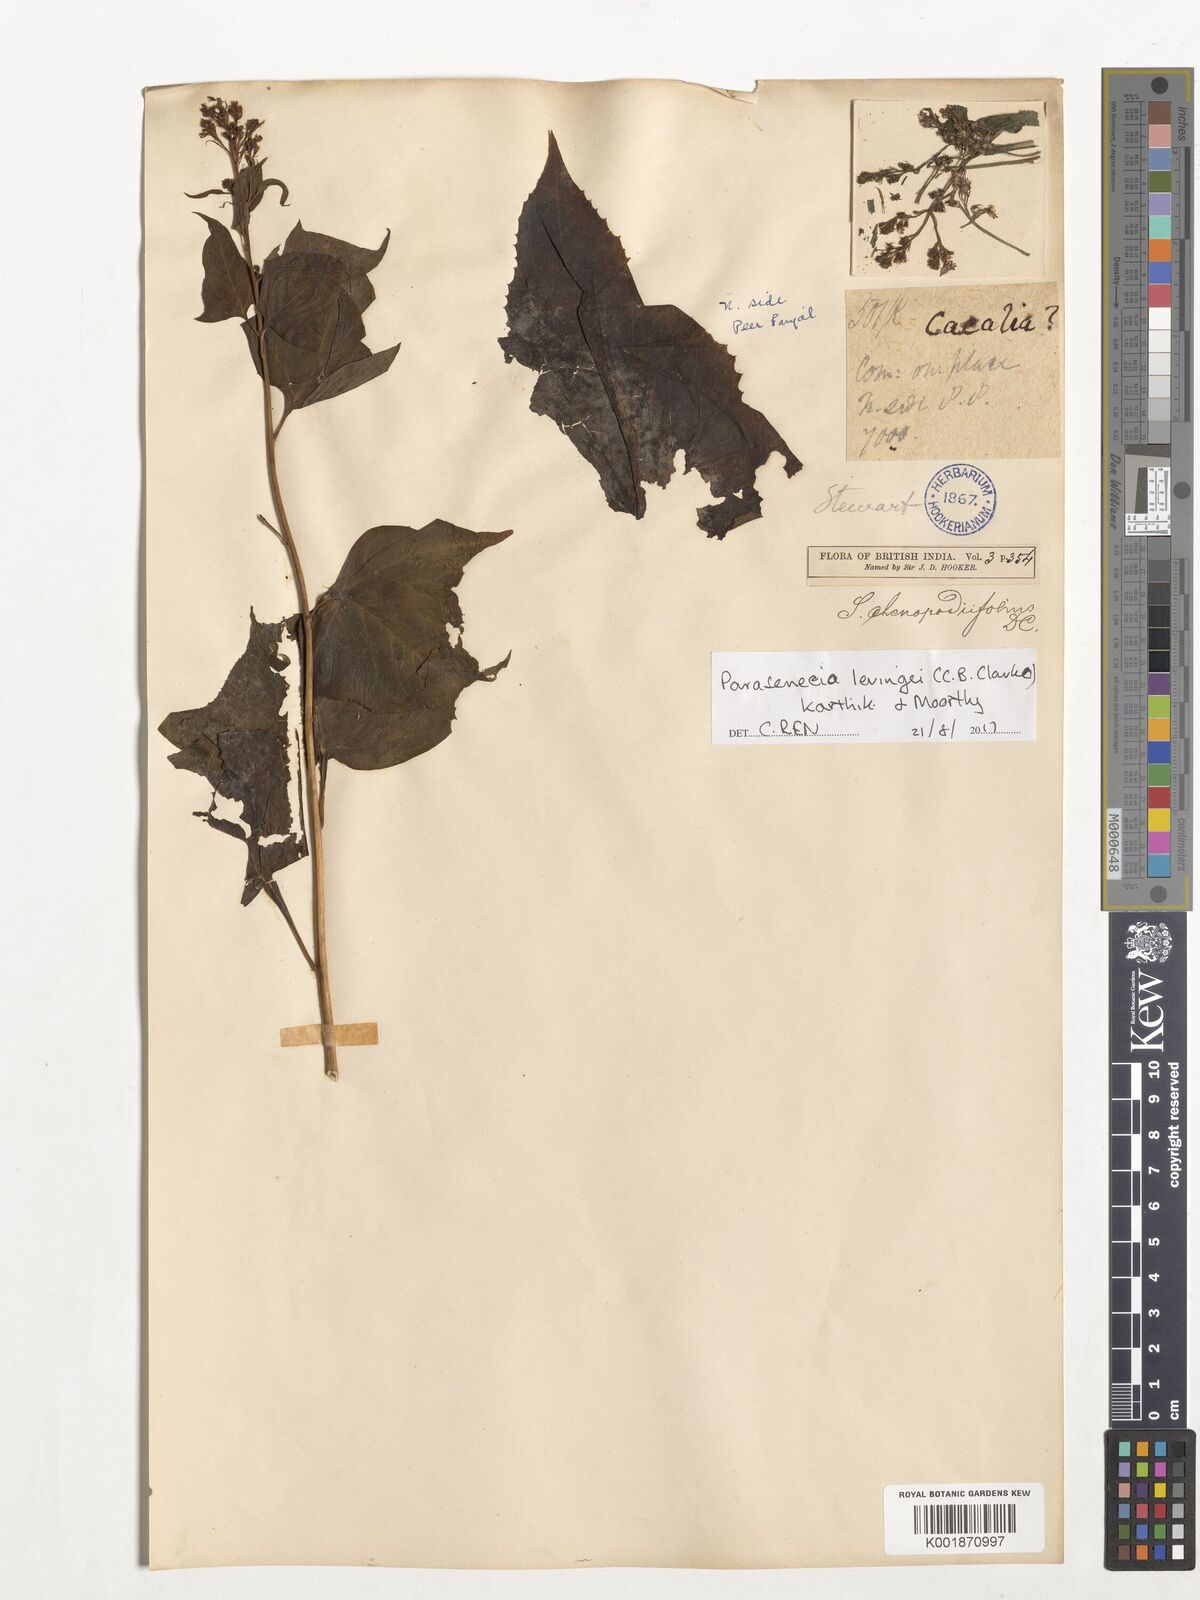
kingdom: Plantae
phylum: Tracheophyta
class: Magnoliopsida
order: Asterales
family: Asteraceae
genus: Parasenecio
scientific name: Parasenecio levingei
